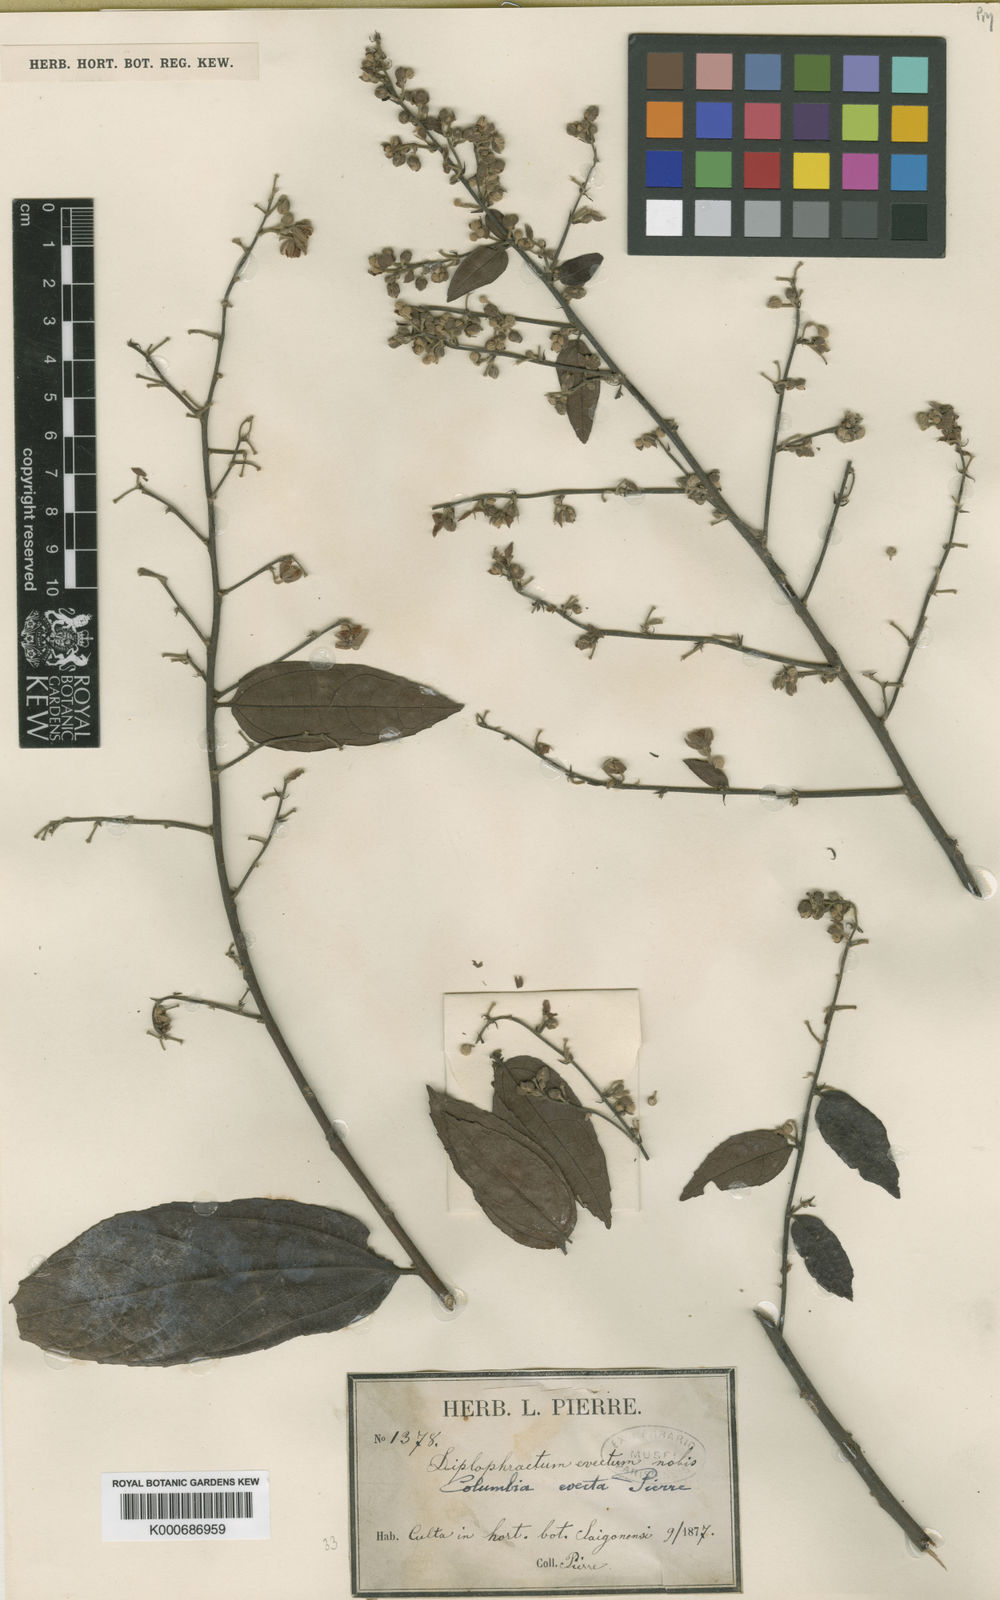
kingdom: Plantae
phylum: Tracheophyta
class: Magnoliopsida
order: Malvales
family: Malvaceae
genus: Colona
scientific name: Colona
